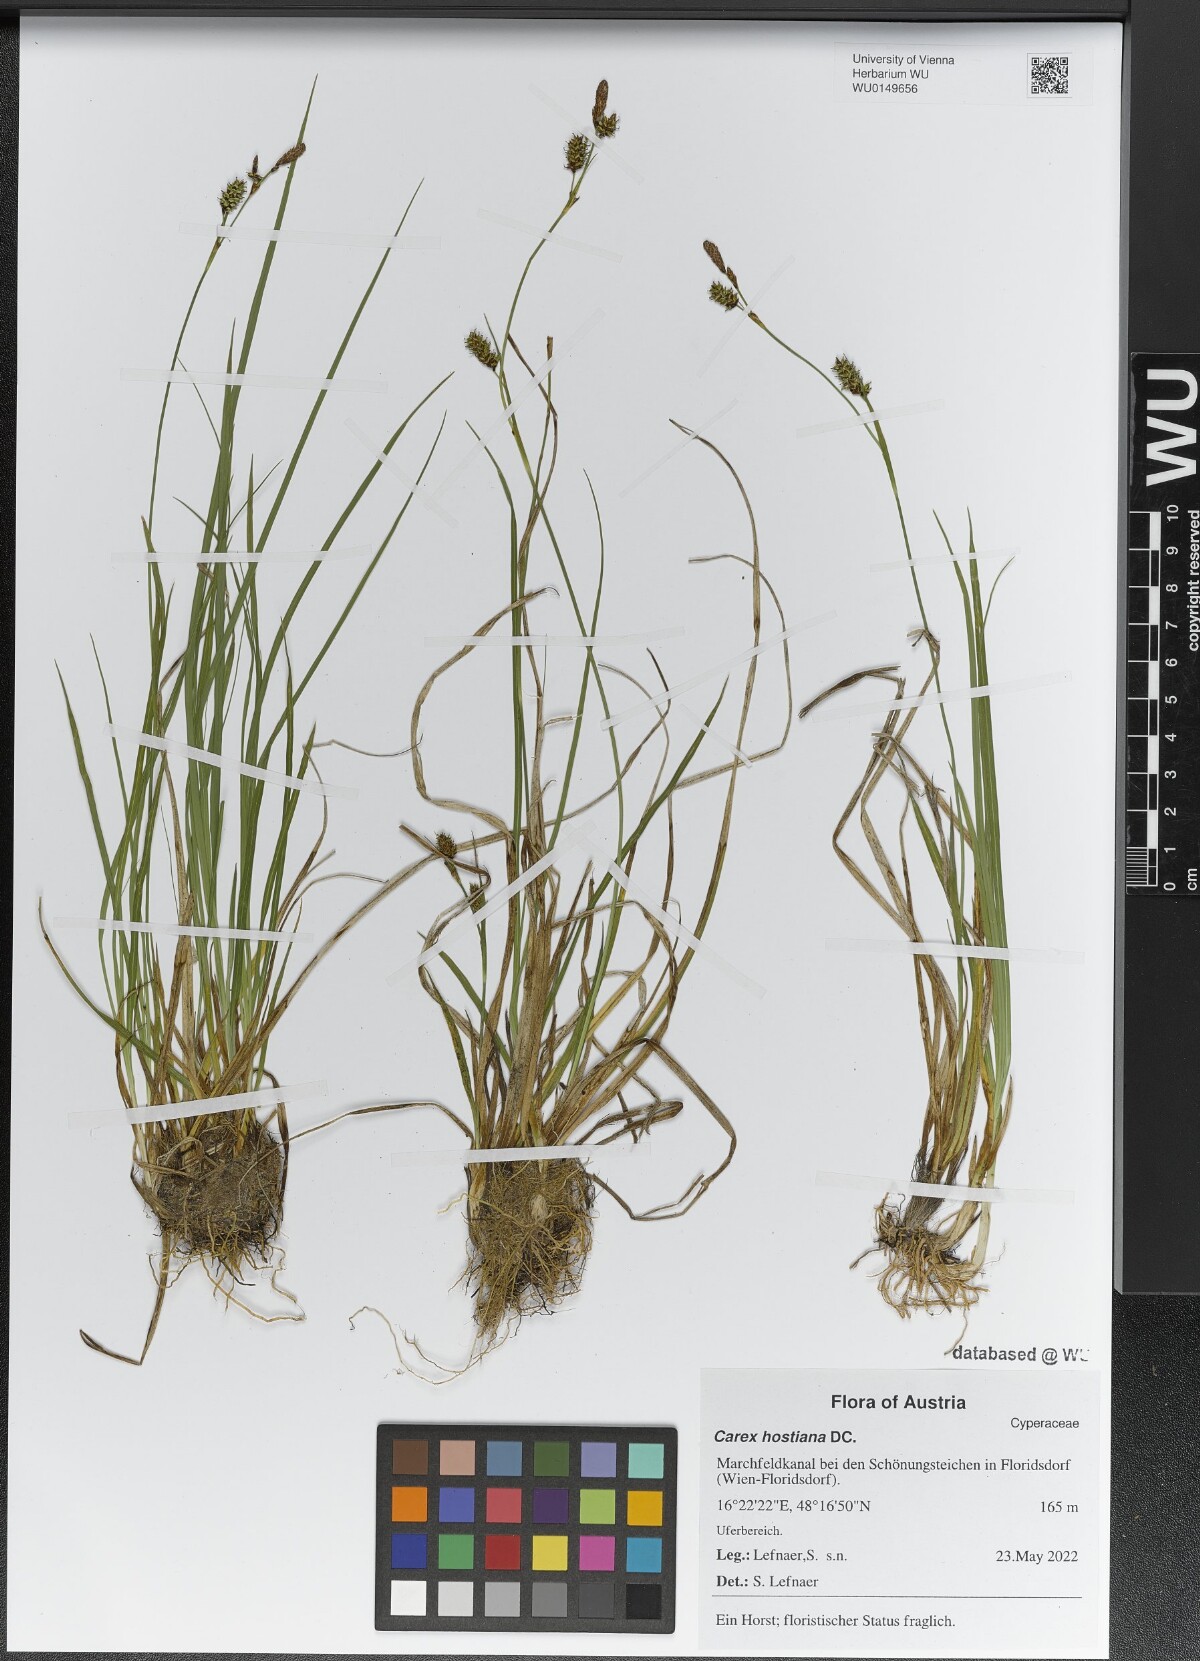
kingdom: Plantae
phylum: Tracheophyta
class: Liliopsida
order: Poales
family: Cyperaceae
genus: Carex
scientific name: Carex hostiana
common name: Tawny sedge
